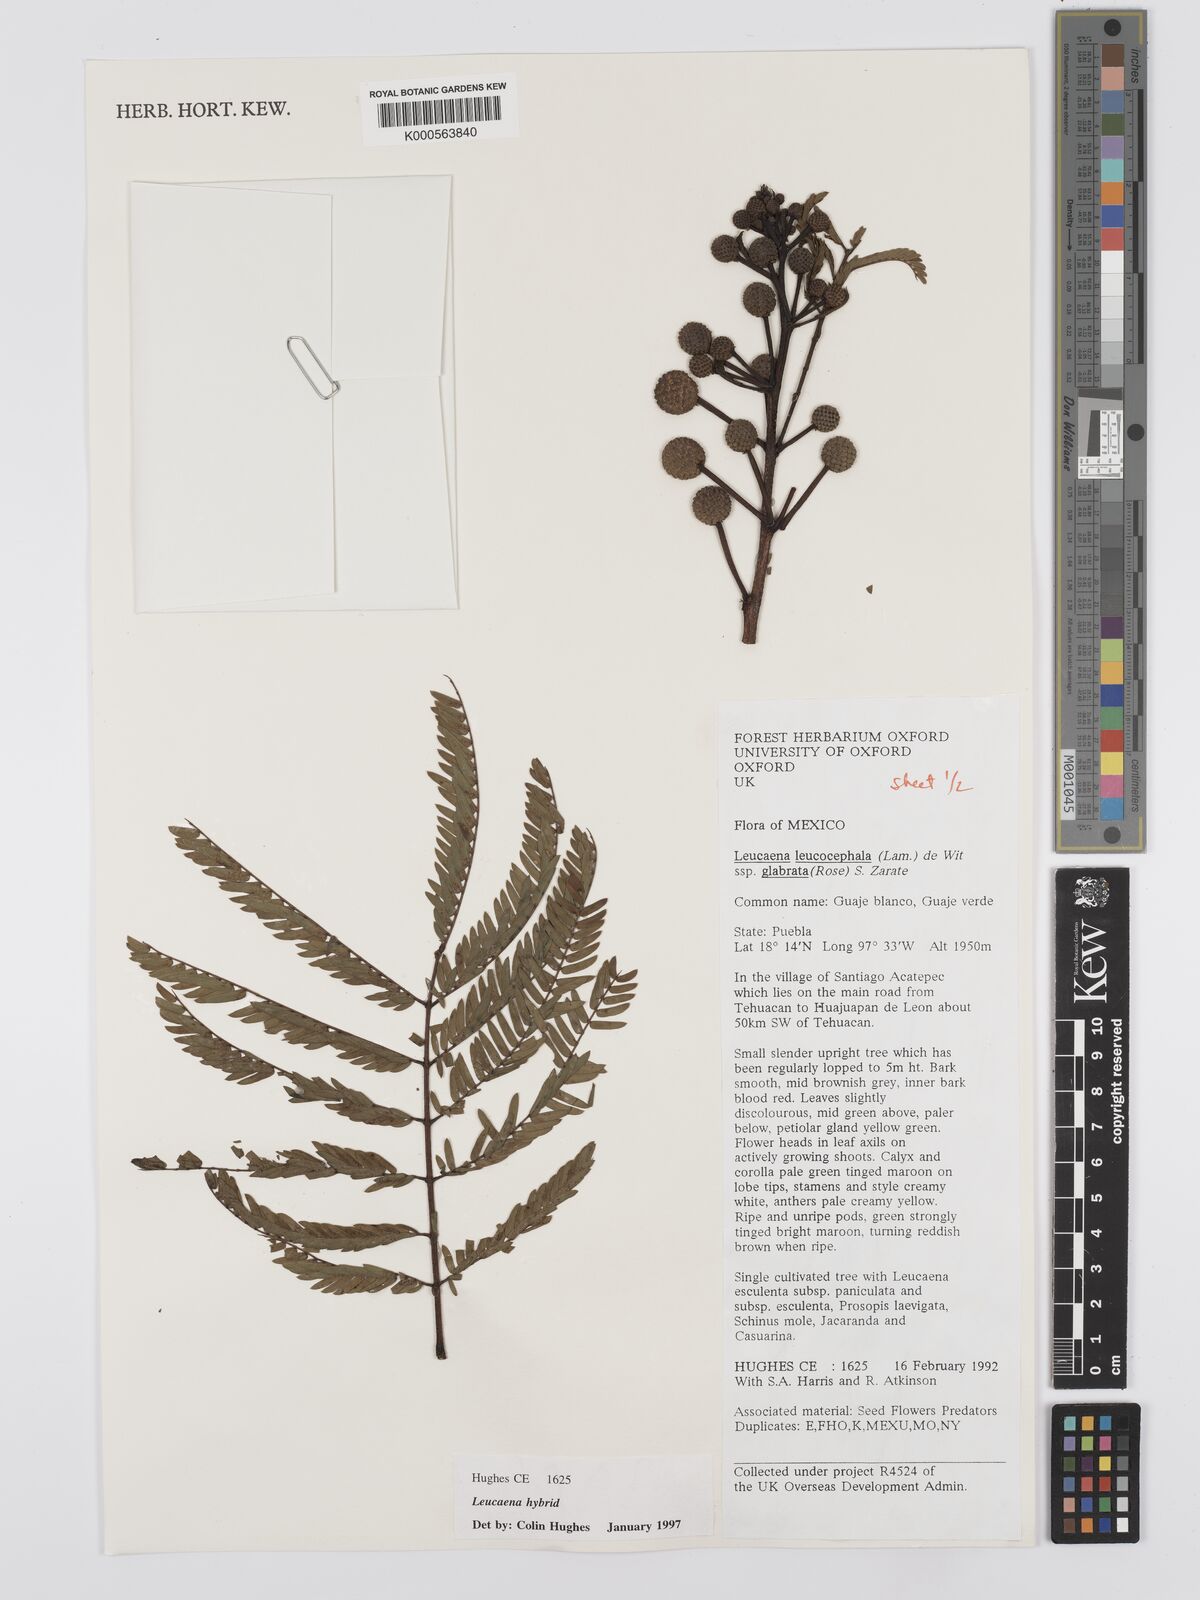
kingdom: Plantae
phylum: Tracheophyta
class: Magnoliopsida
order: Fabales
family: Fabaceae
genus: Leucaena
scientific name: Leucaena
